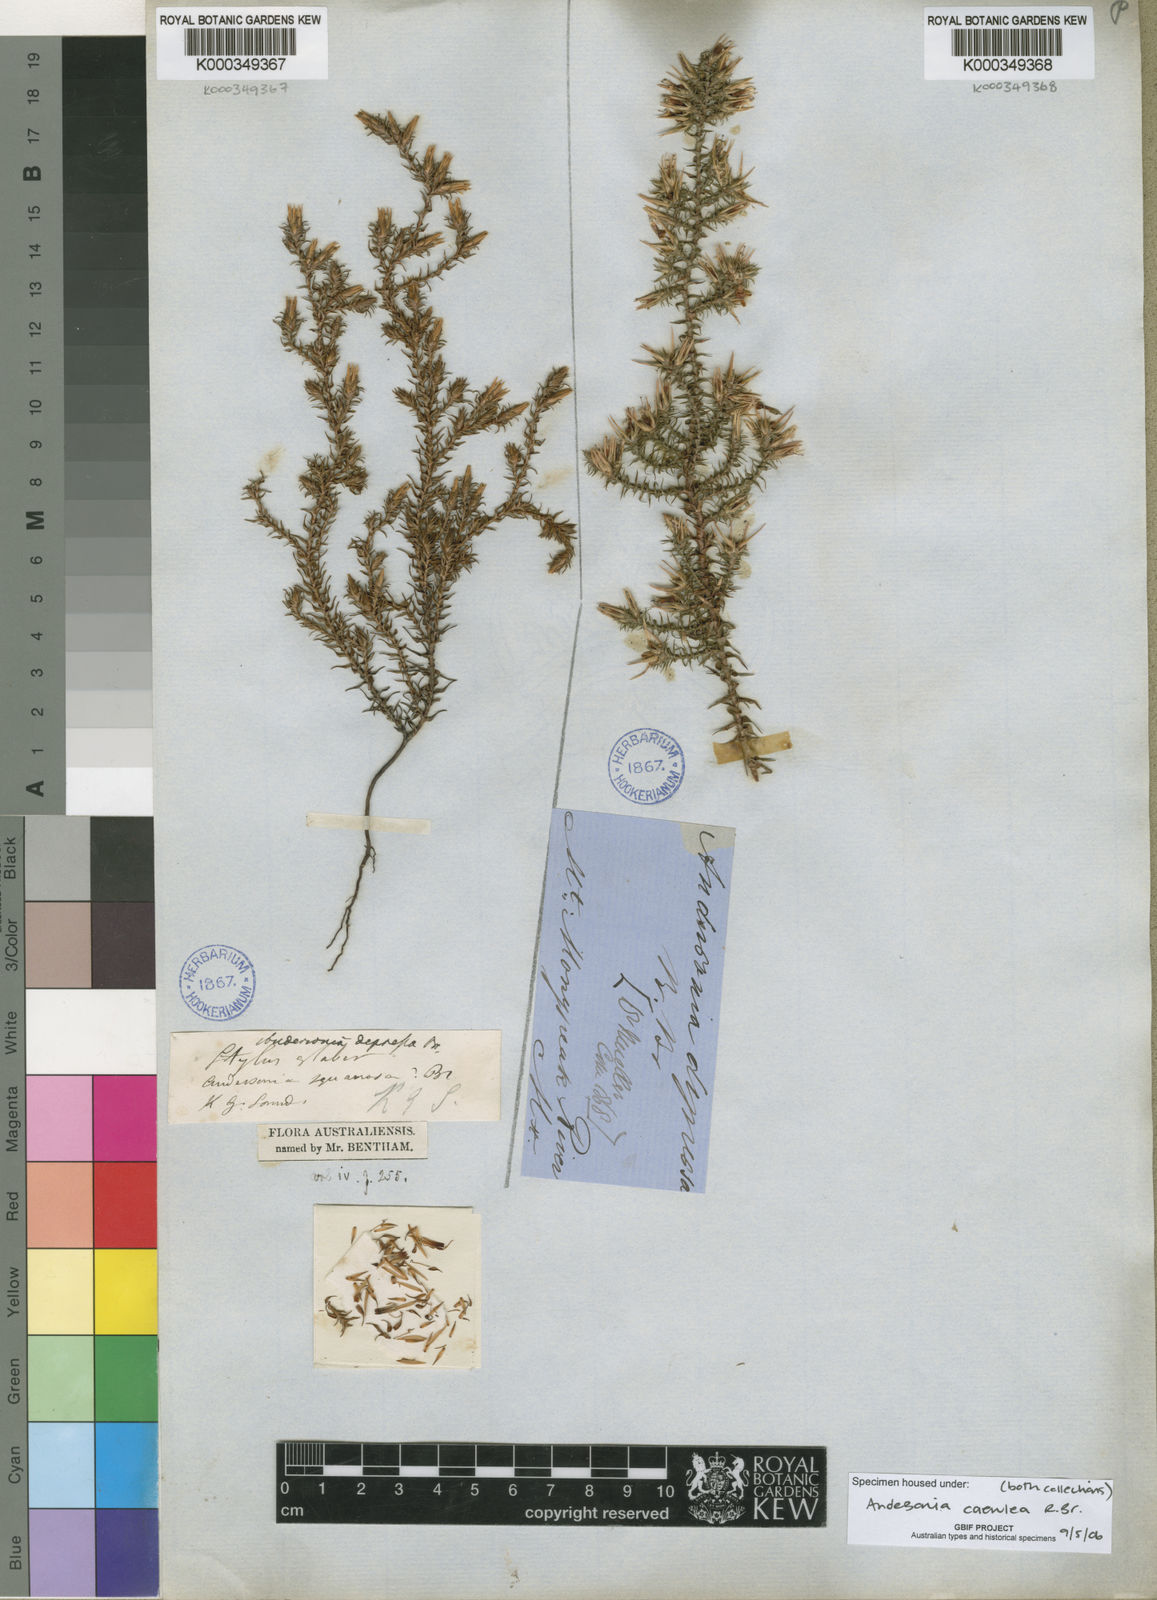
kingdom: Plantae
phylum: Tracheophyta
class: Magnoliopsida
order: Ericales
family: Ericaceae
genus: Andersonia
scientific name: Andersonia caerulea
